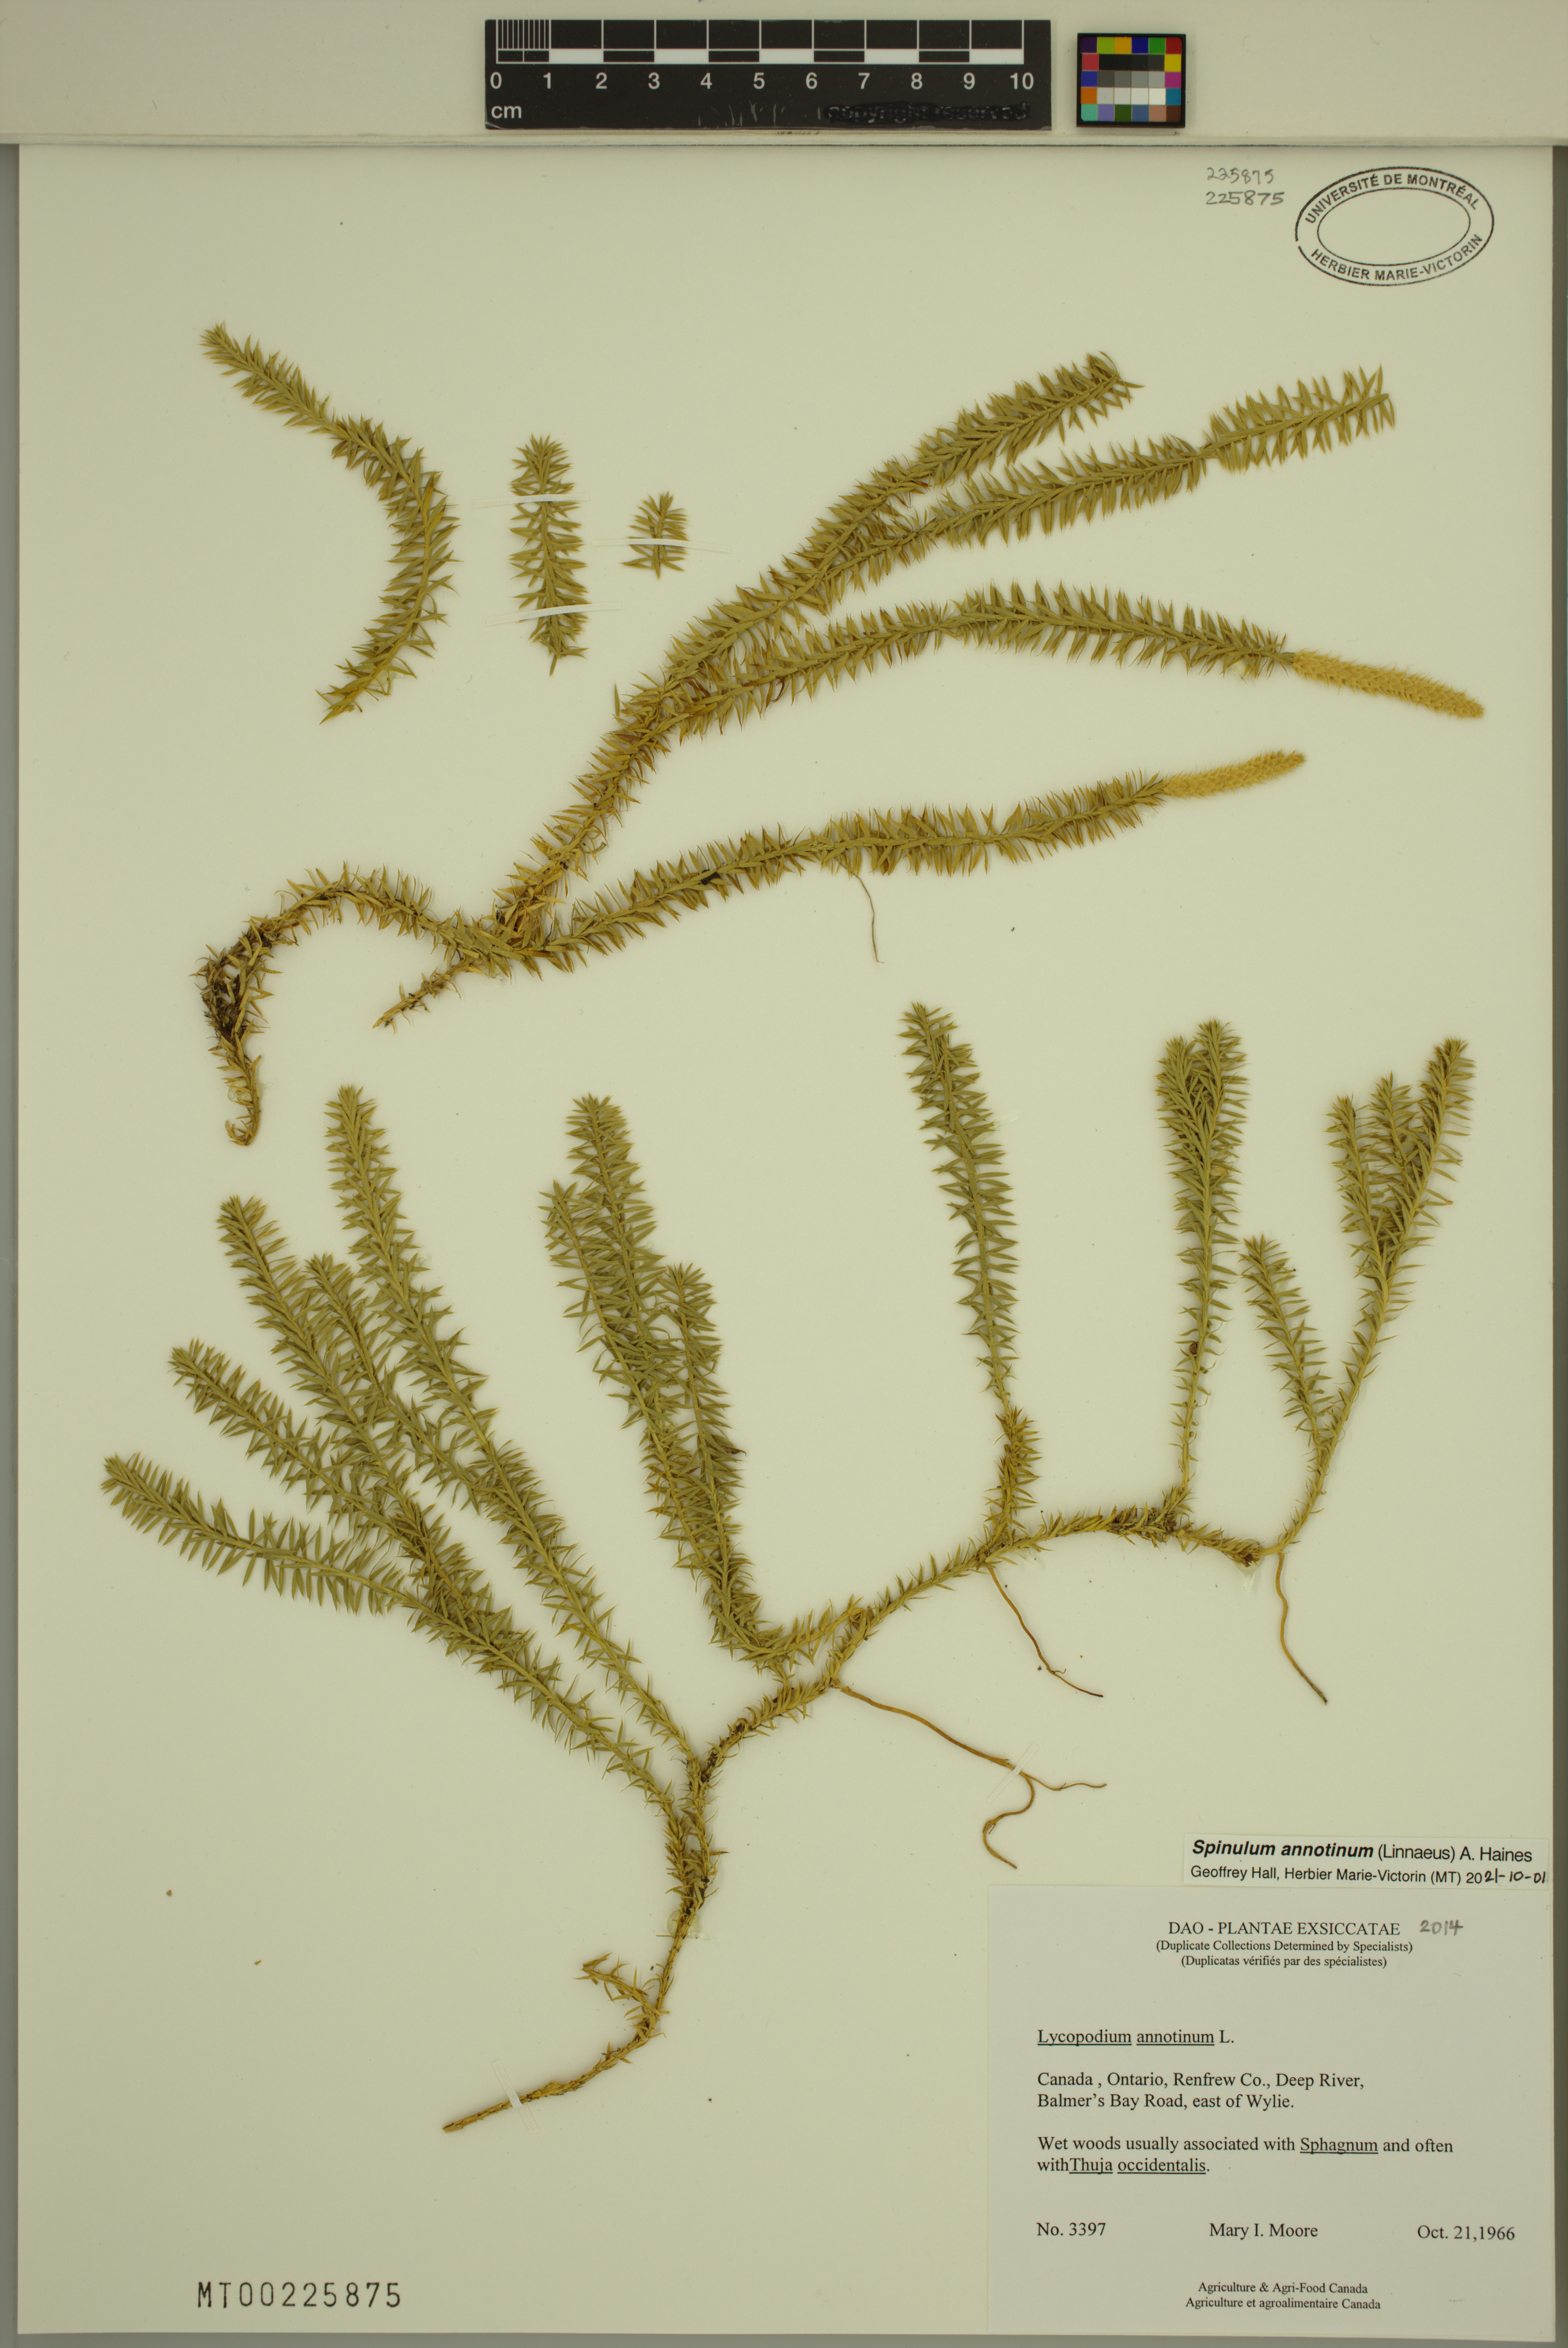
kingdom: Plantae
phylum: Tracheophyta
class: Lycopodiopsida
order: Lycopodiales
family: Lycopodiaceae
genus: Spinulum
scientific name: Spinulum annotinum
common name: Interrupted club-moss
